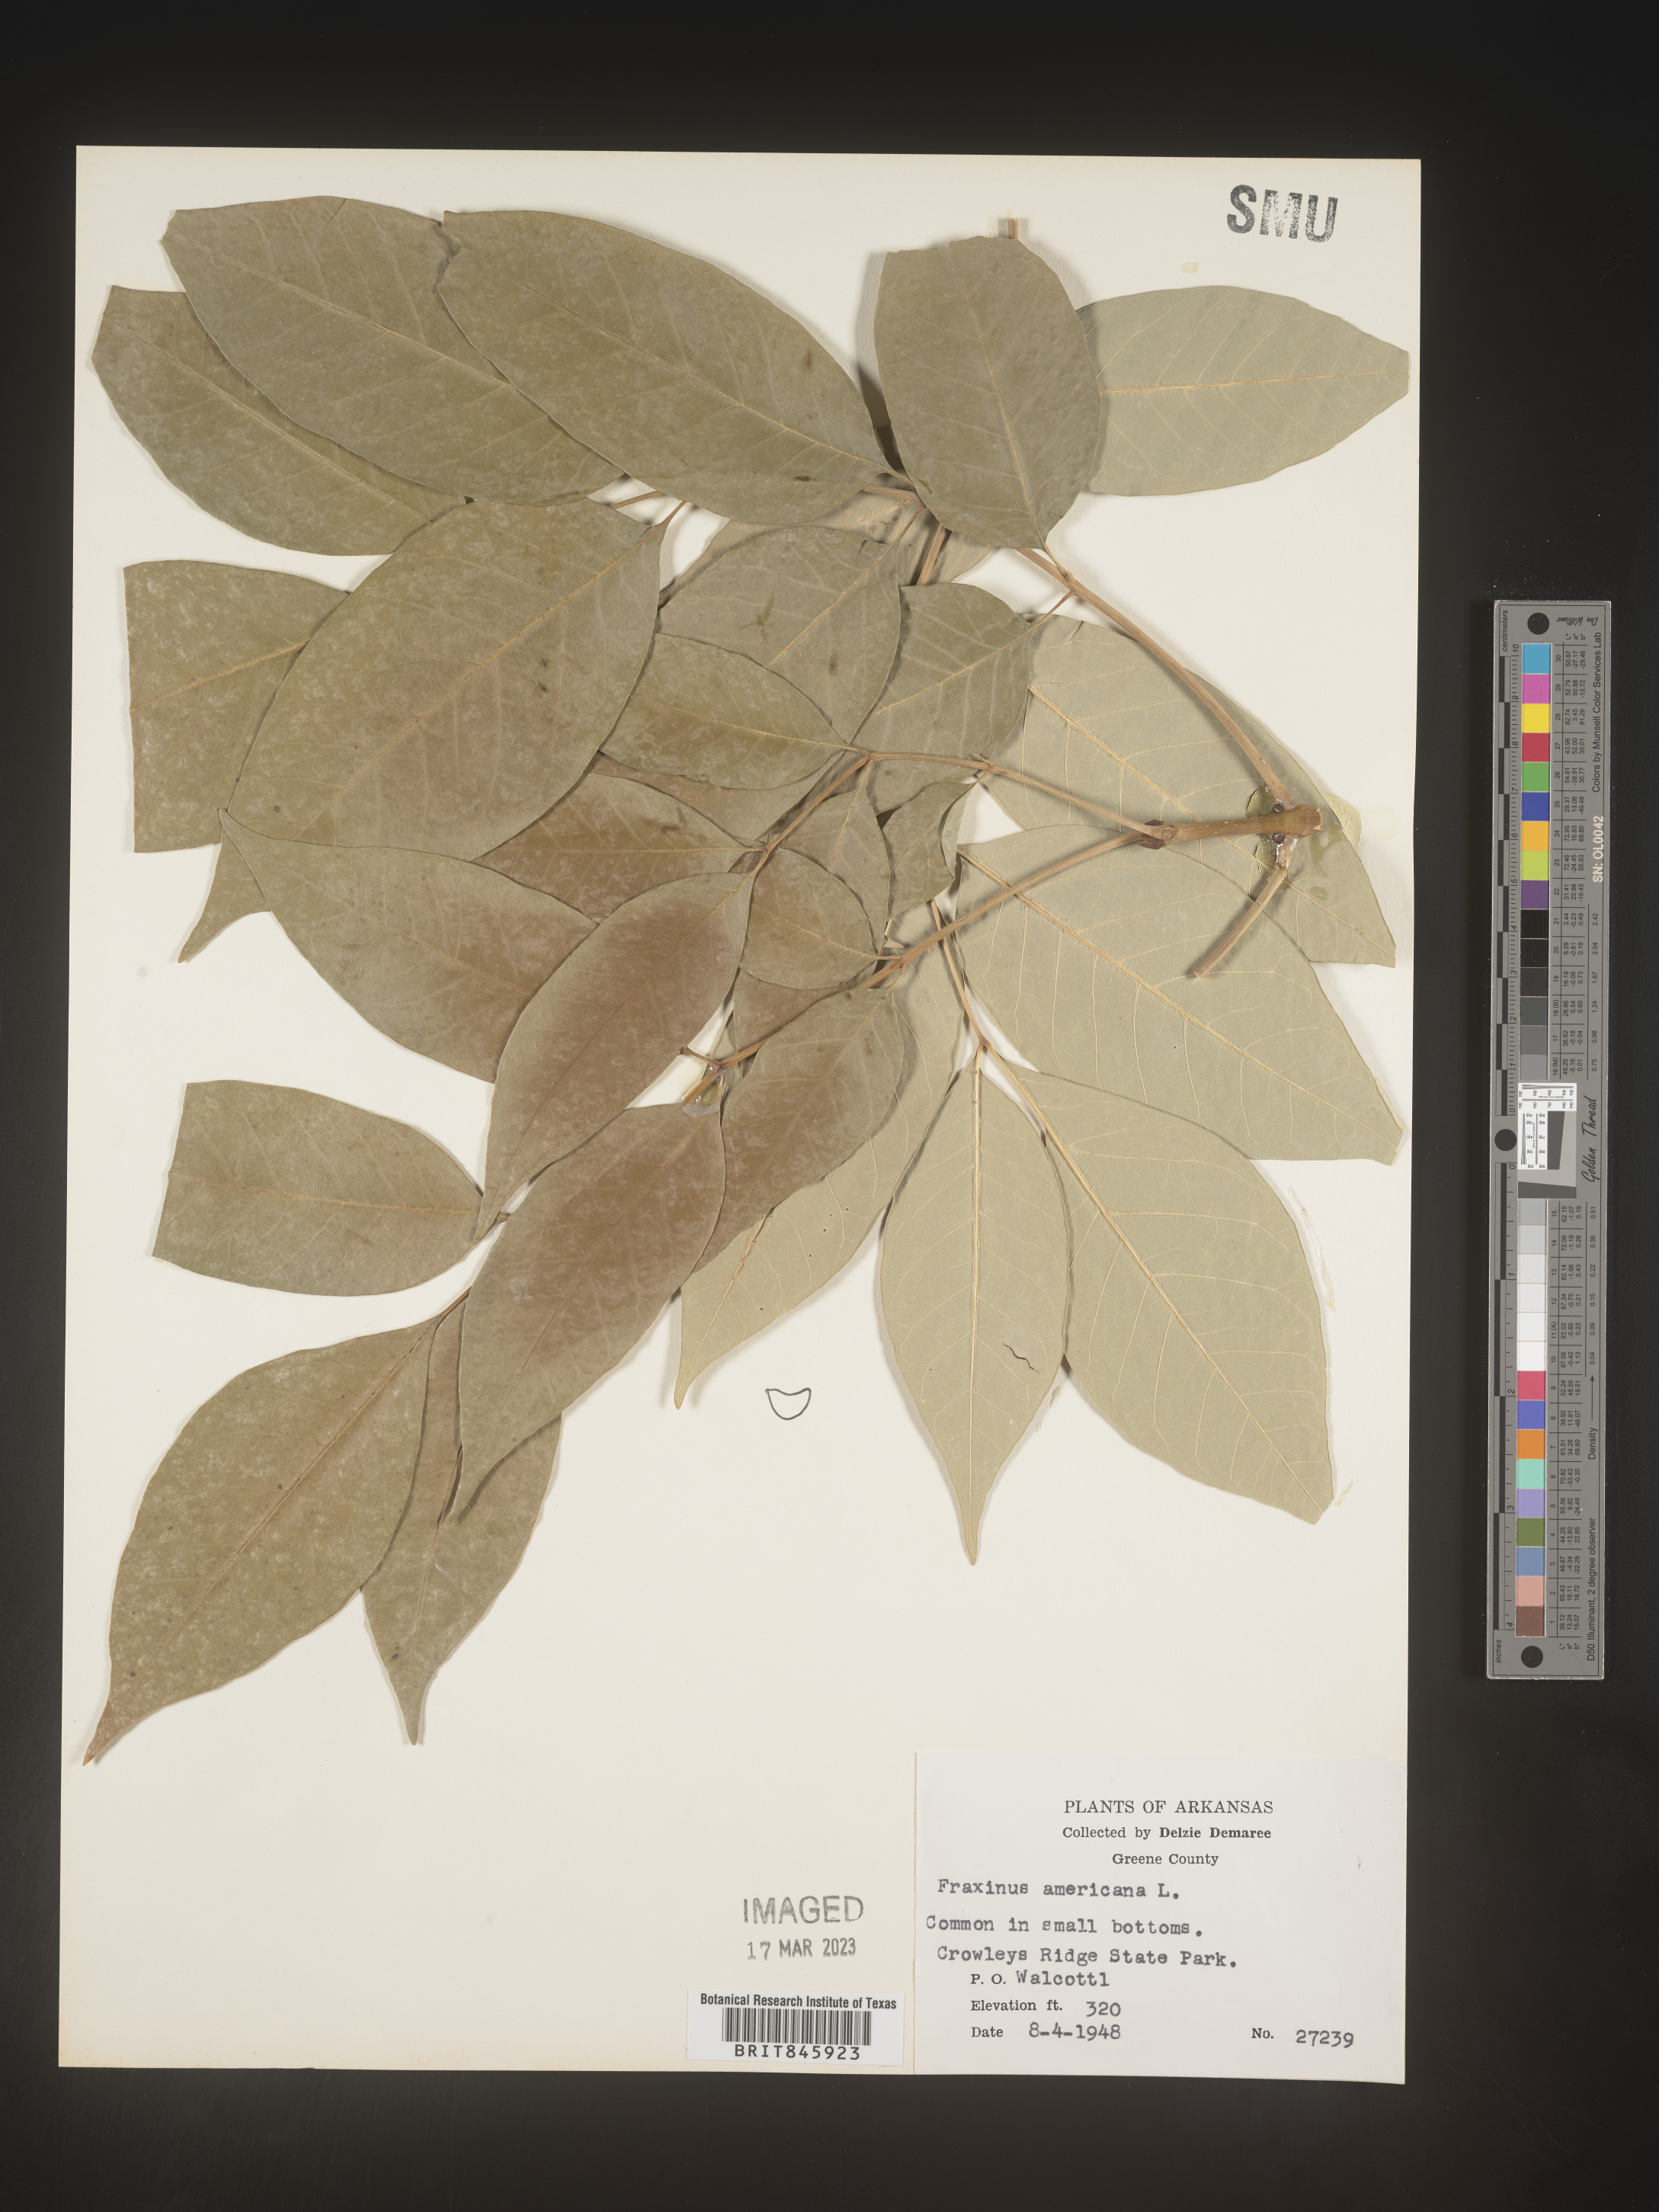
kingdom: Plantae
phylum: Tracheophyta
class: Magnoliopsida
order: Lamiales
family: Oleaceae
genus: Fraxinus
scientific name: Fraxinus americana
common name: White ash
